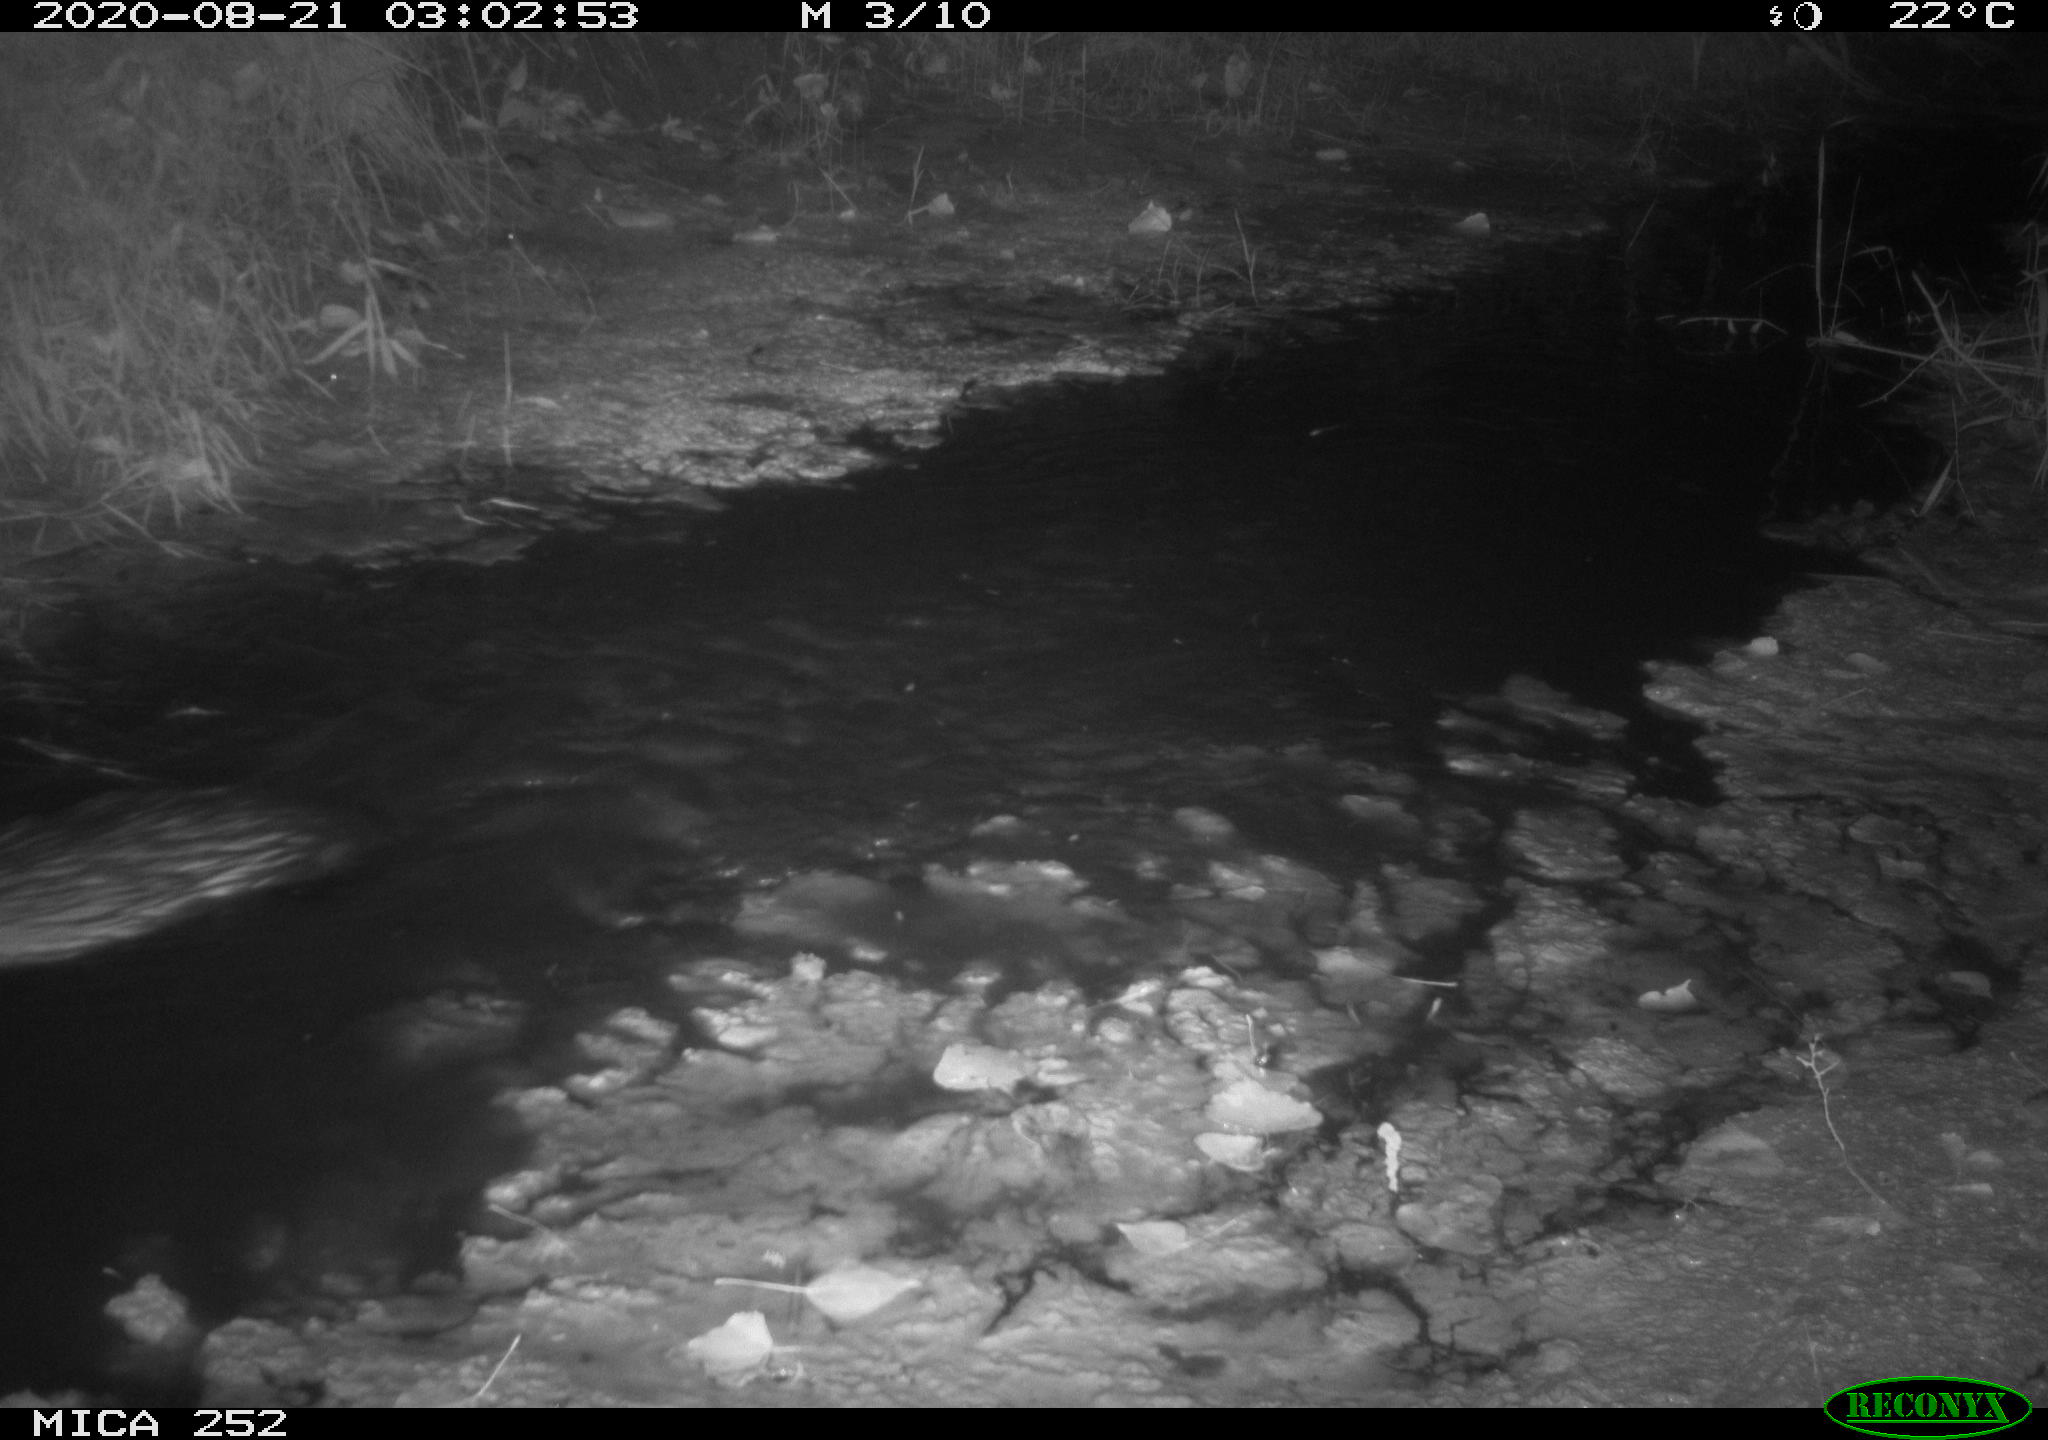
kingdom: Animalia
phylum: Chordata
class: Mammalia
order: Rodentia
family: Castoridae
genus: Castor
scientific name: Castor fiber
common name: Eurasian beaver
